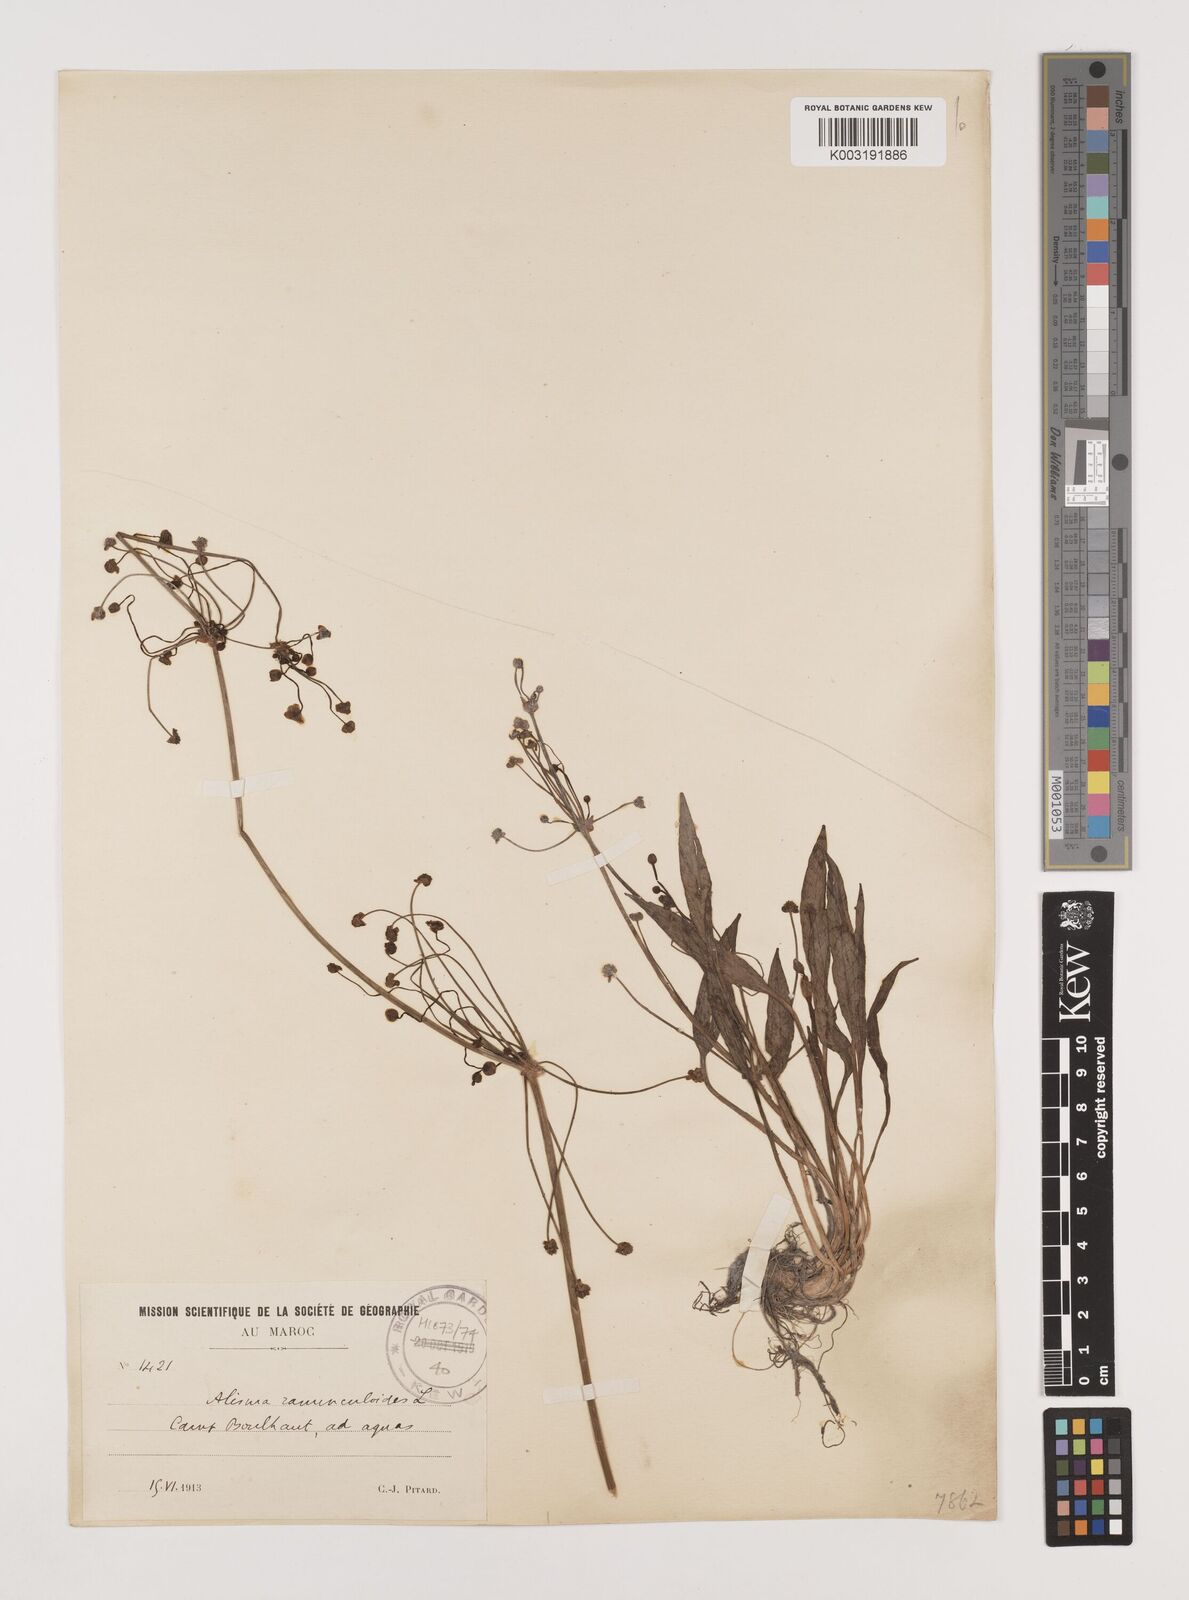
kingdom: Plantae
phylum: Tracheophyta
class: Liliopsida
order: Alismatales
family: Alismataceae
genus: Baldellia
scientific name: Baldellia ranunculoides
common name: Lesser water-plantain
